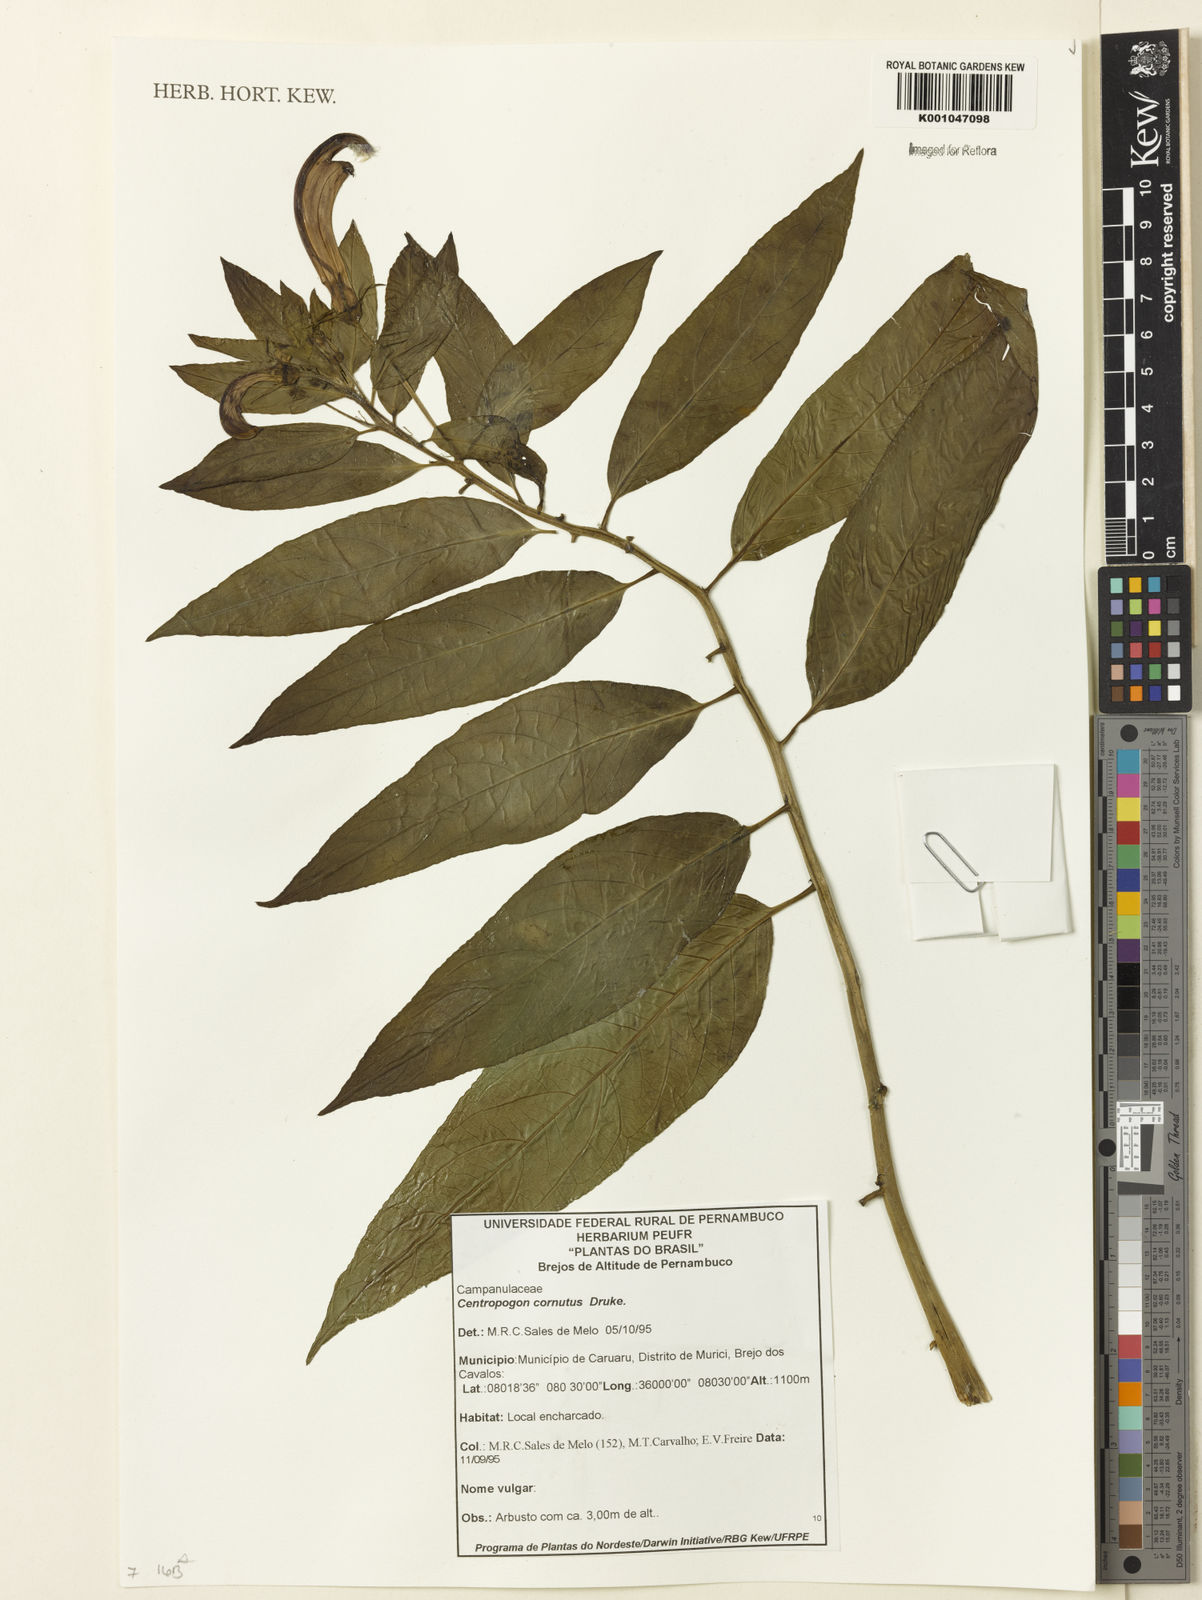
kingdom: Plantae
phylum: Tracheophyta
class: Magnoliopsida
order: Asterales
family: Campanulaceae
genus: Centropogon
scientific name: Centropogon cornutus
